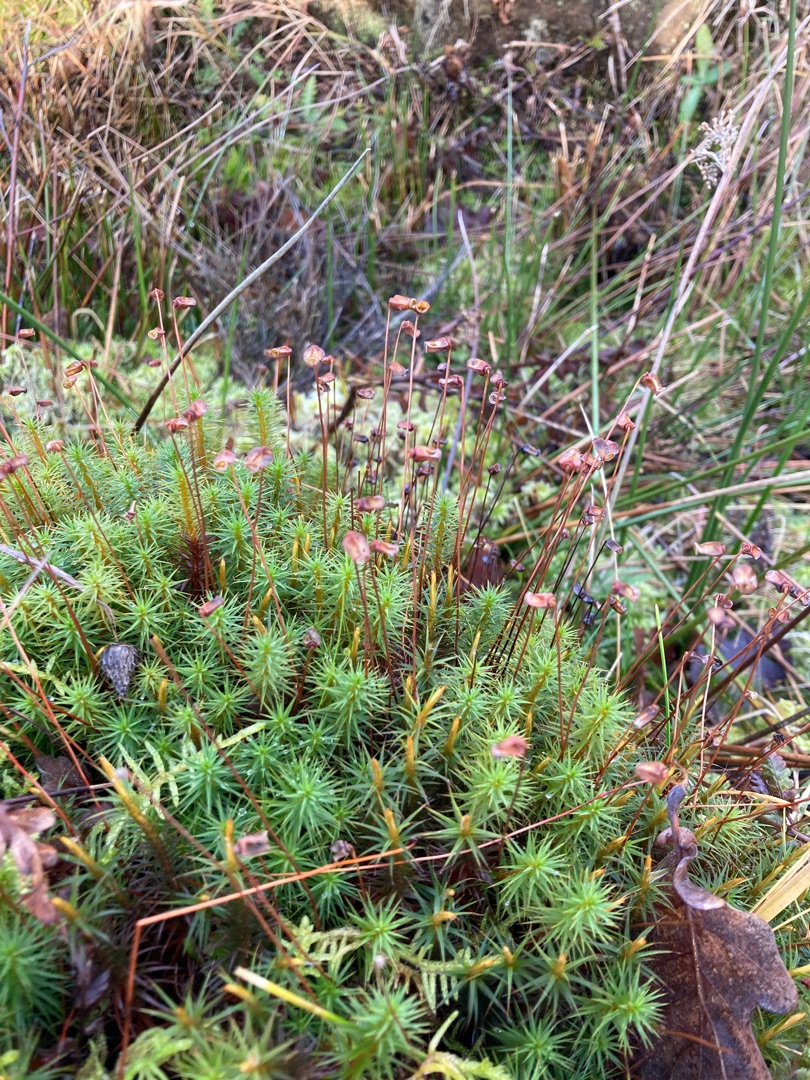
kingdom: Plantae
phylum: Bryophyta
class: Polytrichopsida
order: Polytrichales
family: Polytrichaceae
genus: Polytrichum
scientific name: Polytrichum commune
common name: Almindelig jomfruhår
